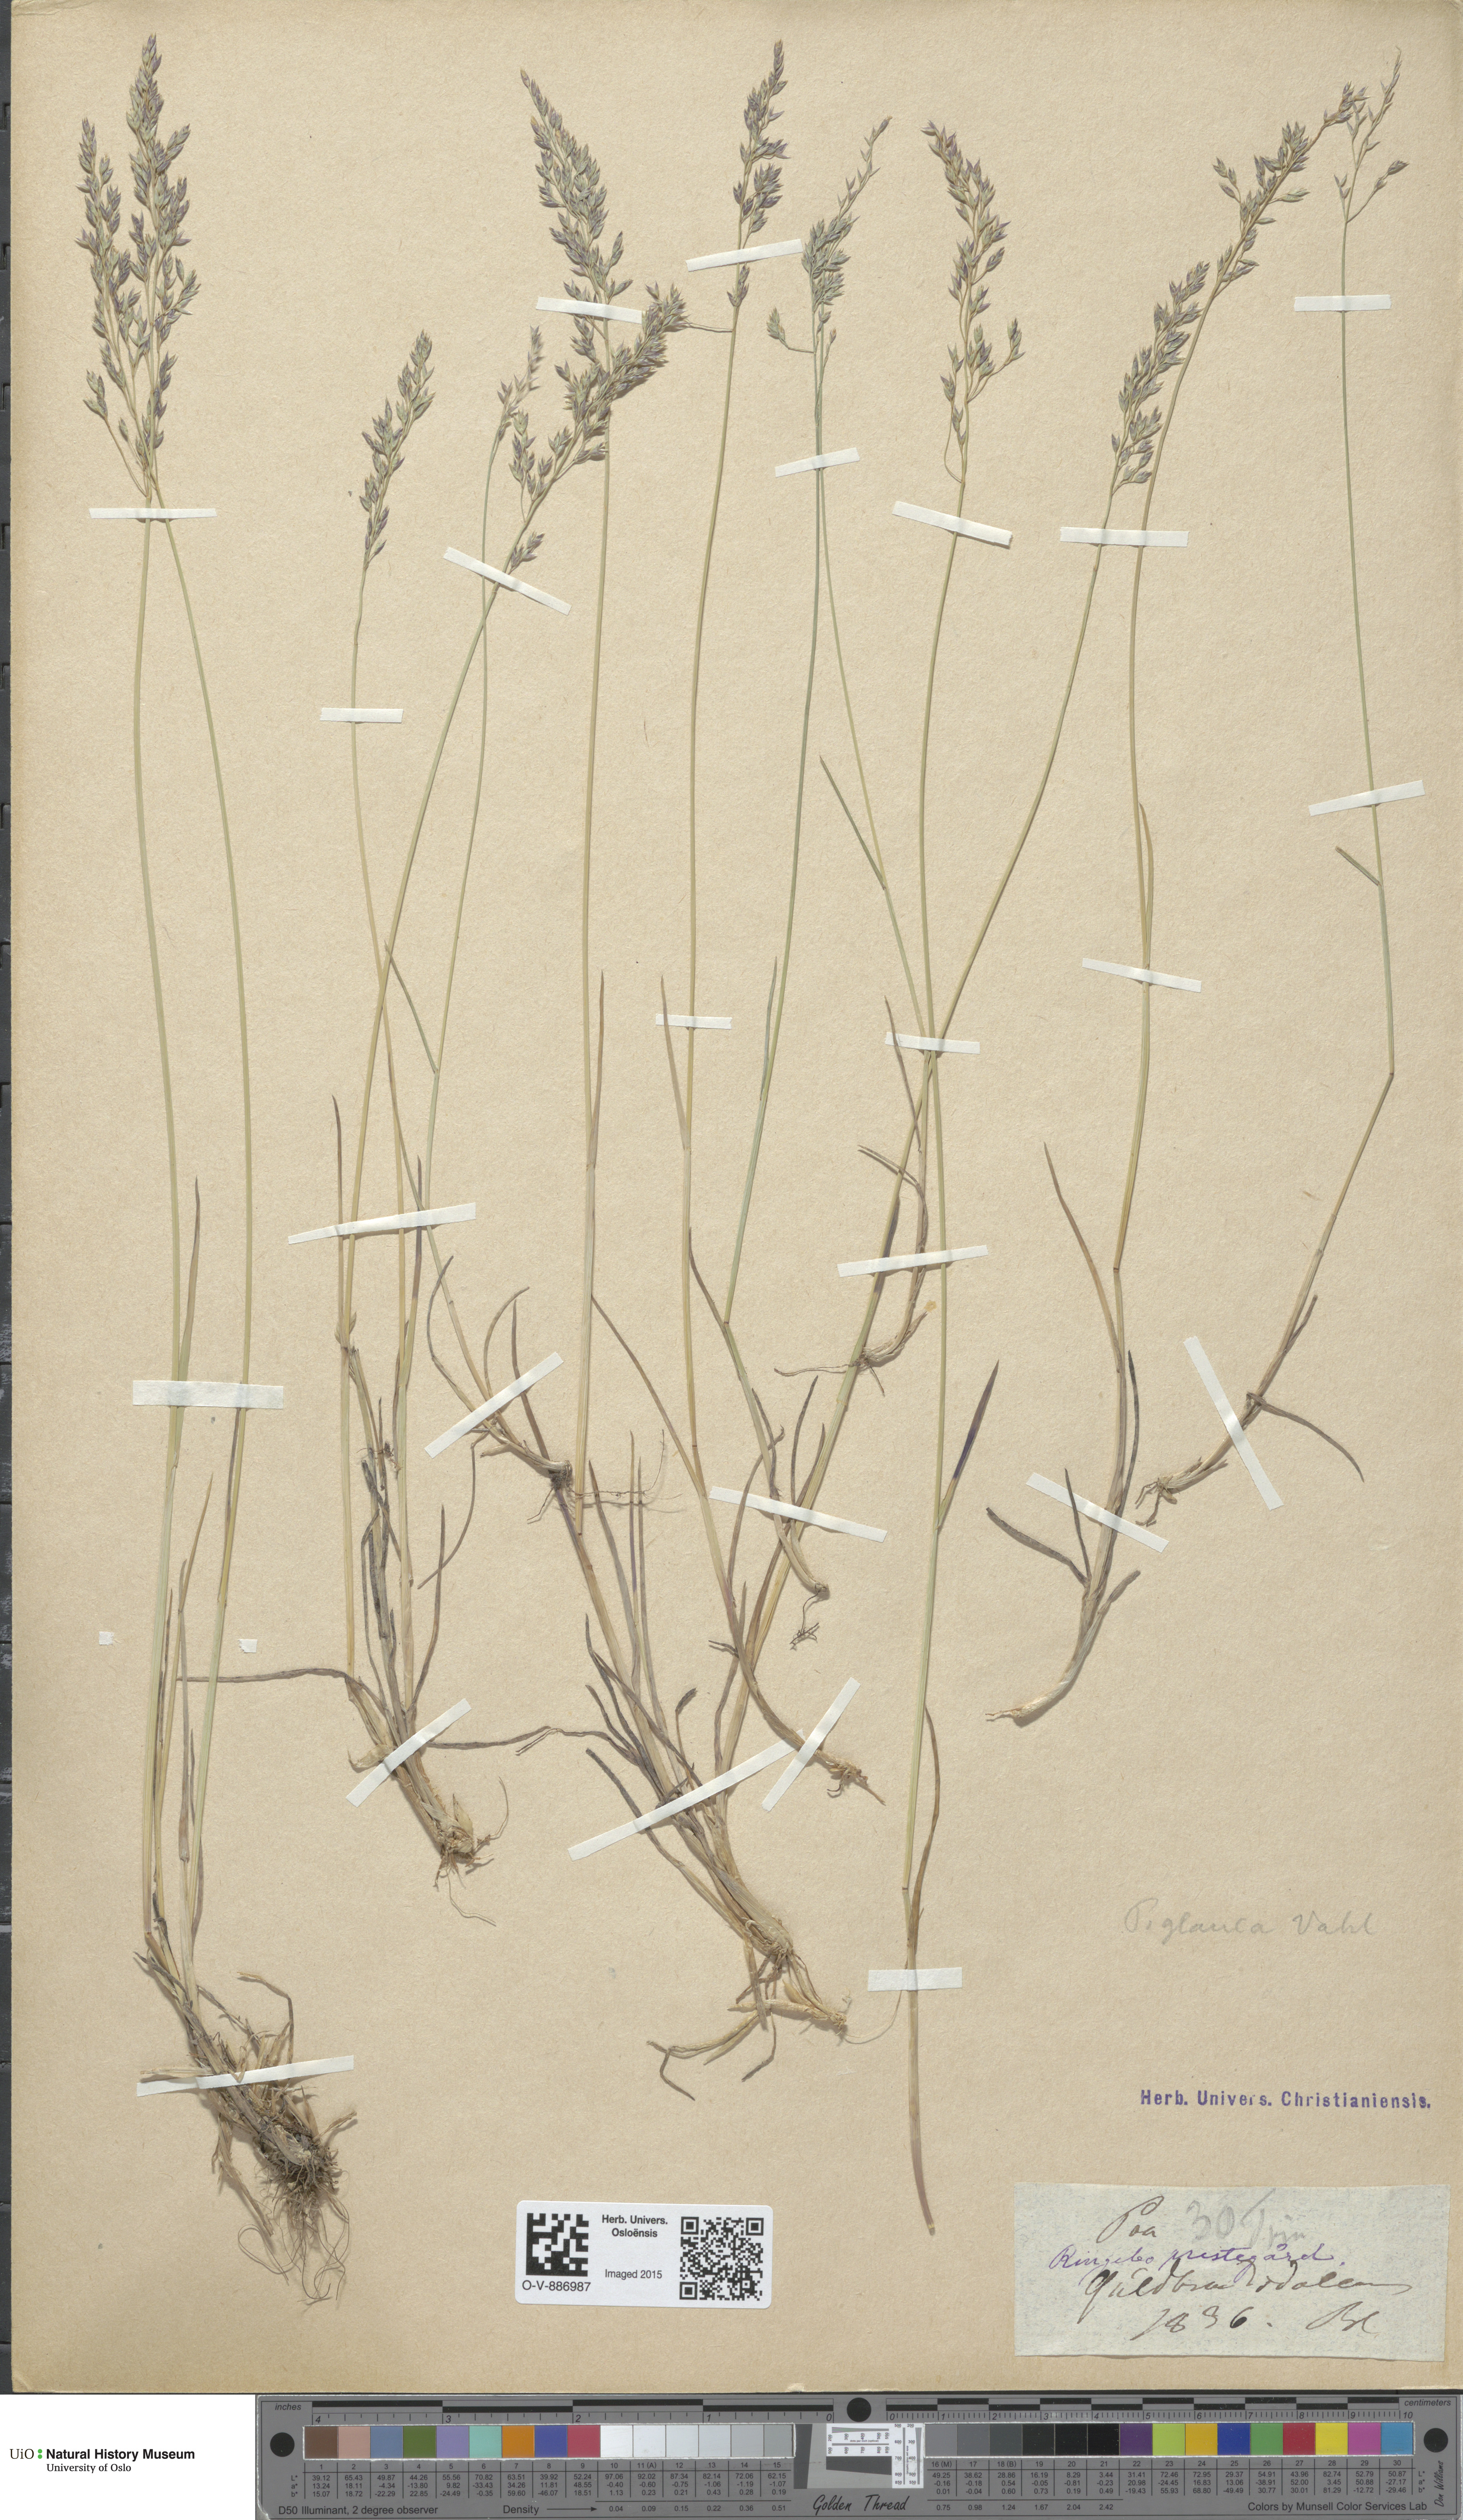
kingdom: Plantae
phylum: Tracheophyta
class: Liliopsida
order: Poales
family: Poaceae
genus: Poa
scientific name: Poa glauca
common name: Glaucous bluegrass
